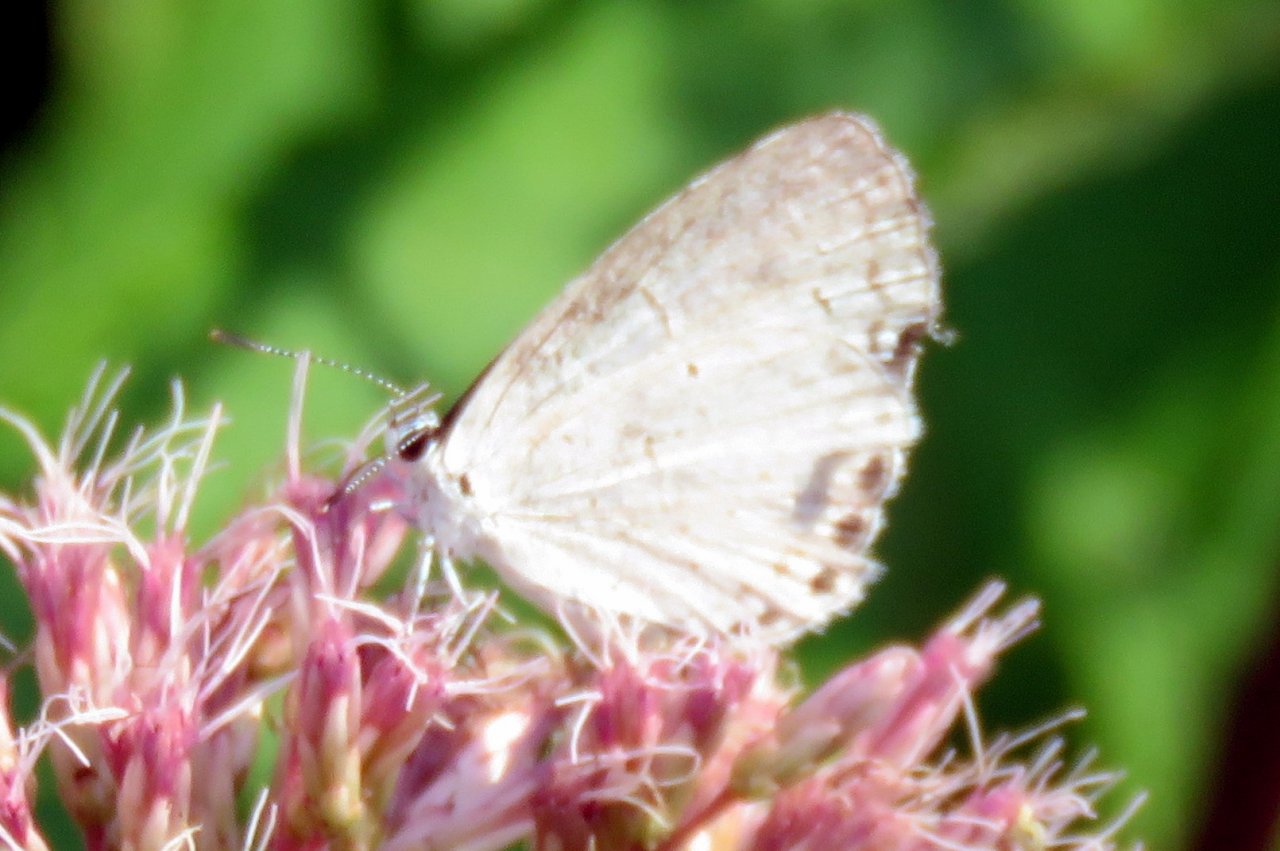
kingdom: Animalia
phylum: Arthropoda
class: Insecta
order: Lepidoptera
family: Lycaenidae
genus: Cyaniris
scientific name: Cyaniris neglecta
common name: Summer Azure
